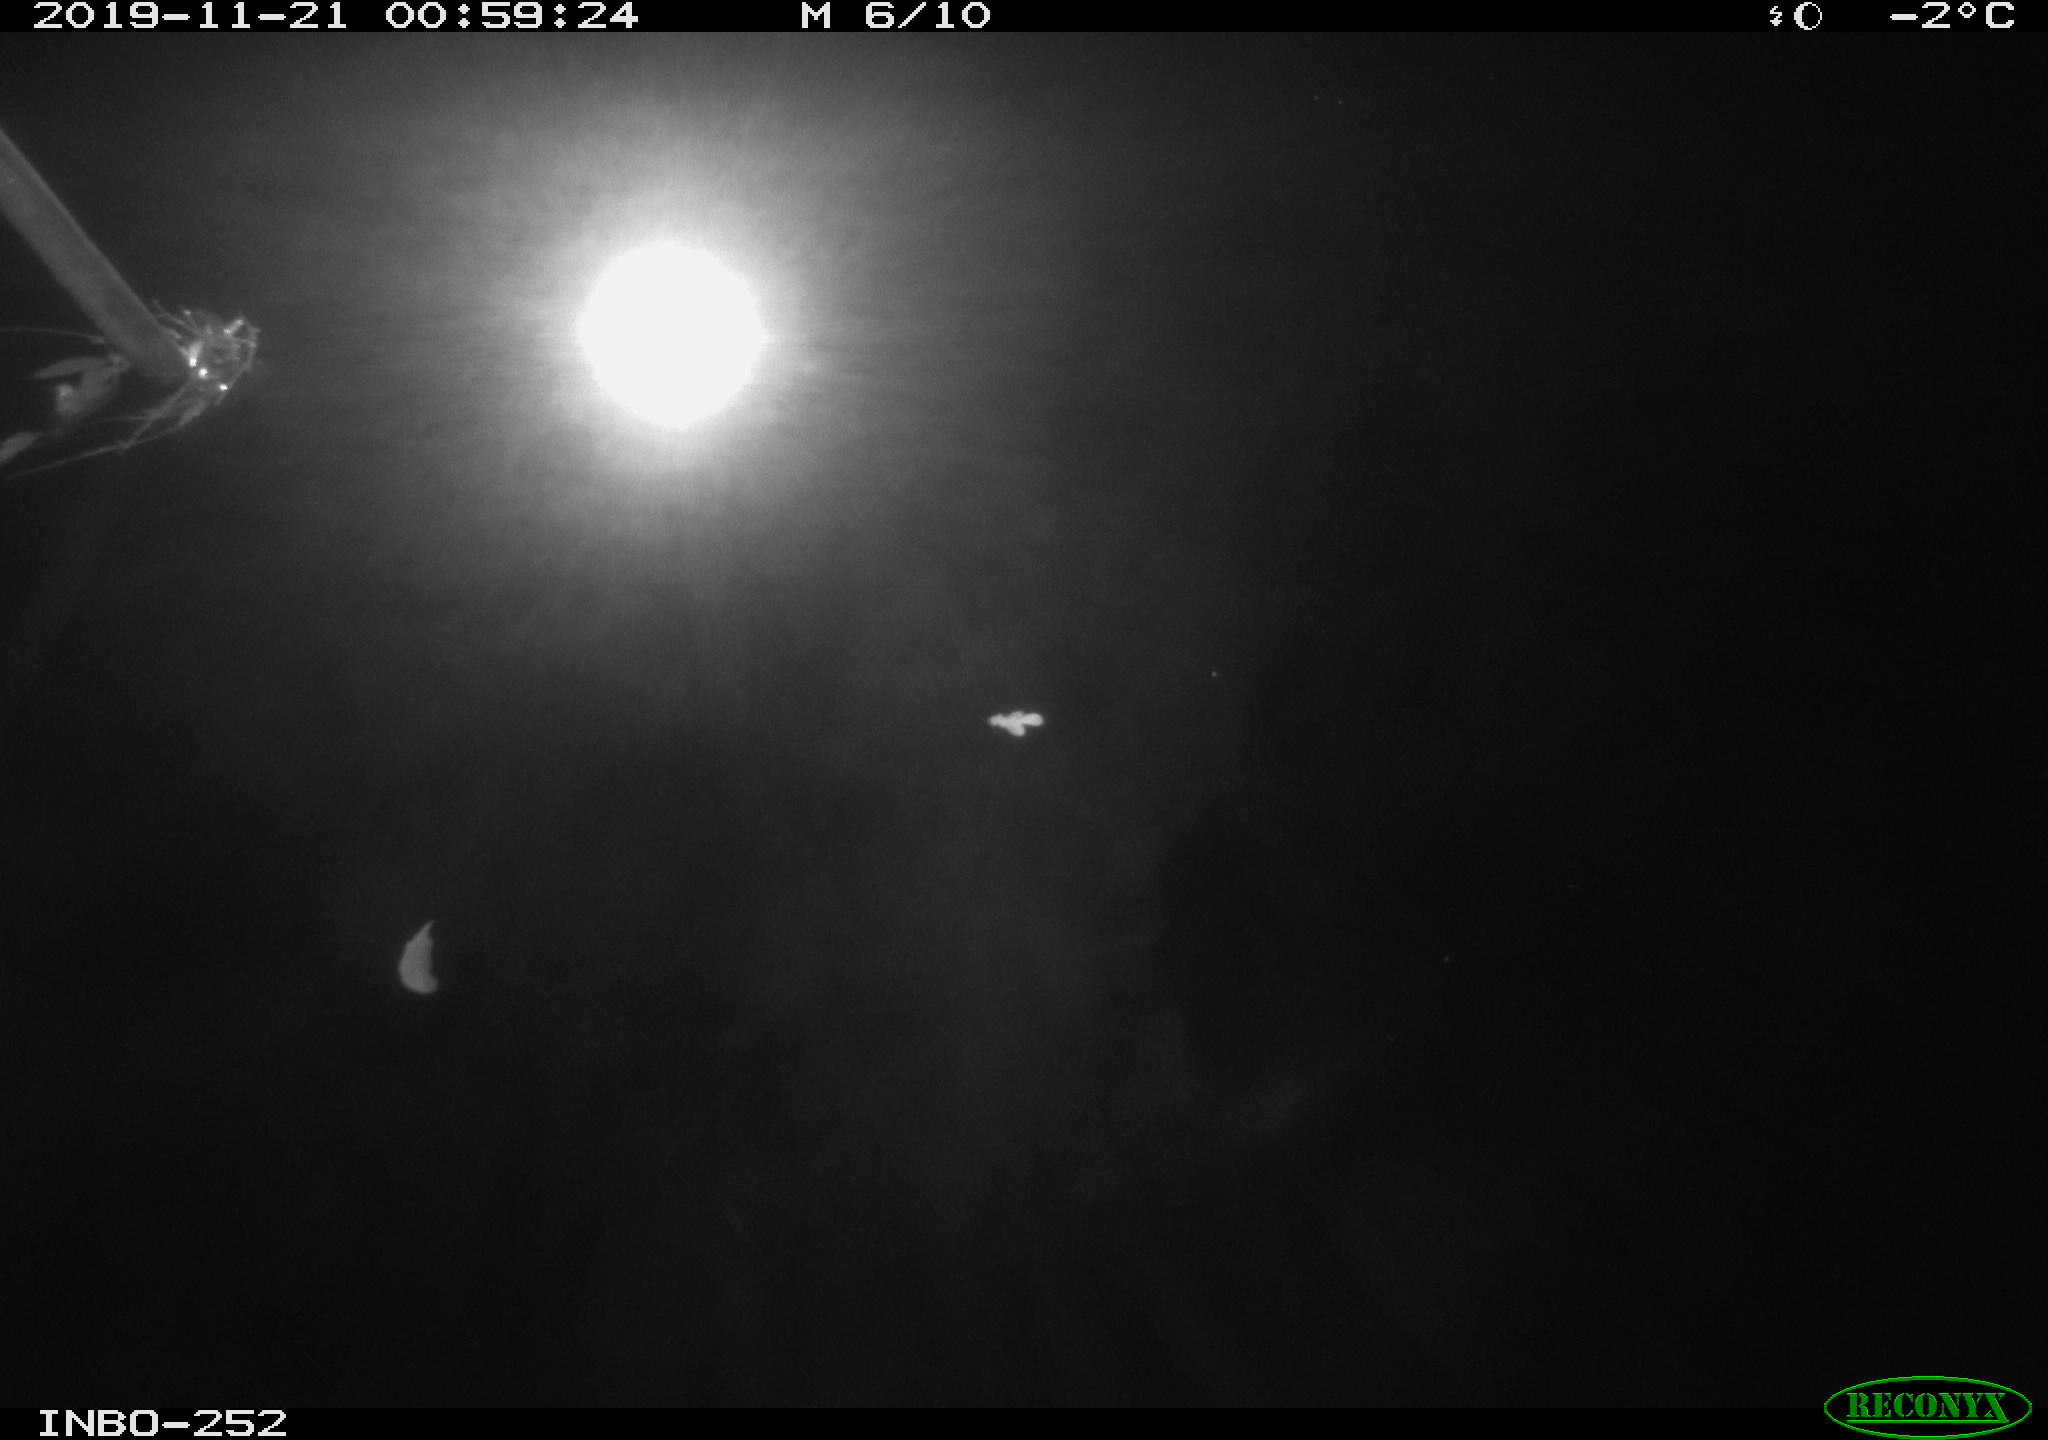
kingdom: Animalia
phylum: Chordata
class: Aves
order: Anseriformes
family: Anatidae
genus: Anas
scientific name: Anas platyrhynchos
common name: Mallard
